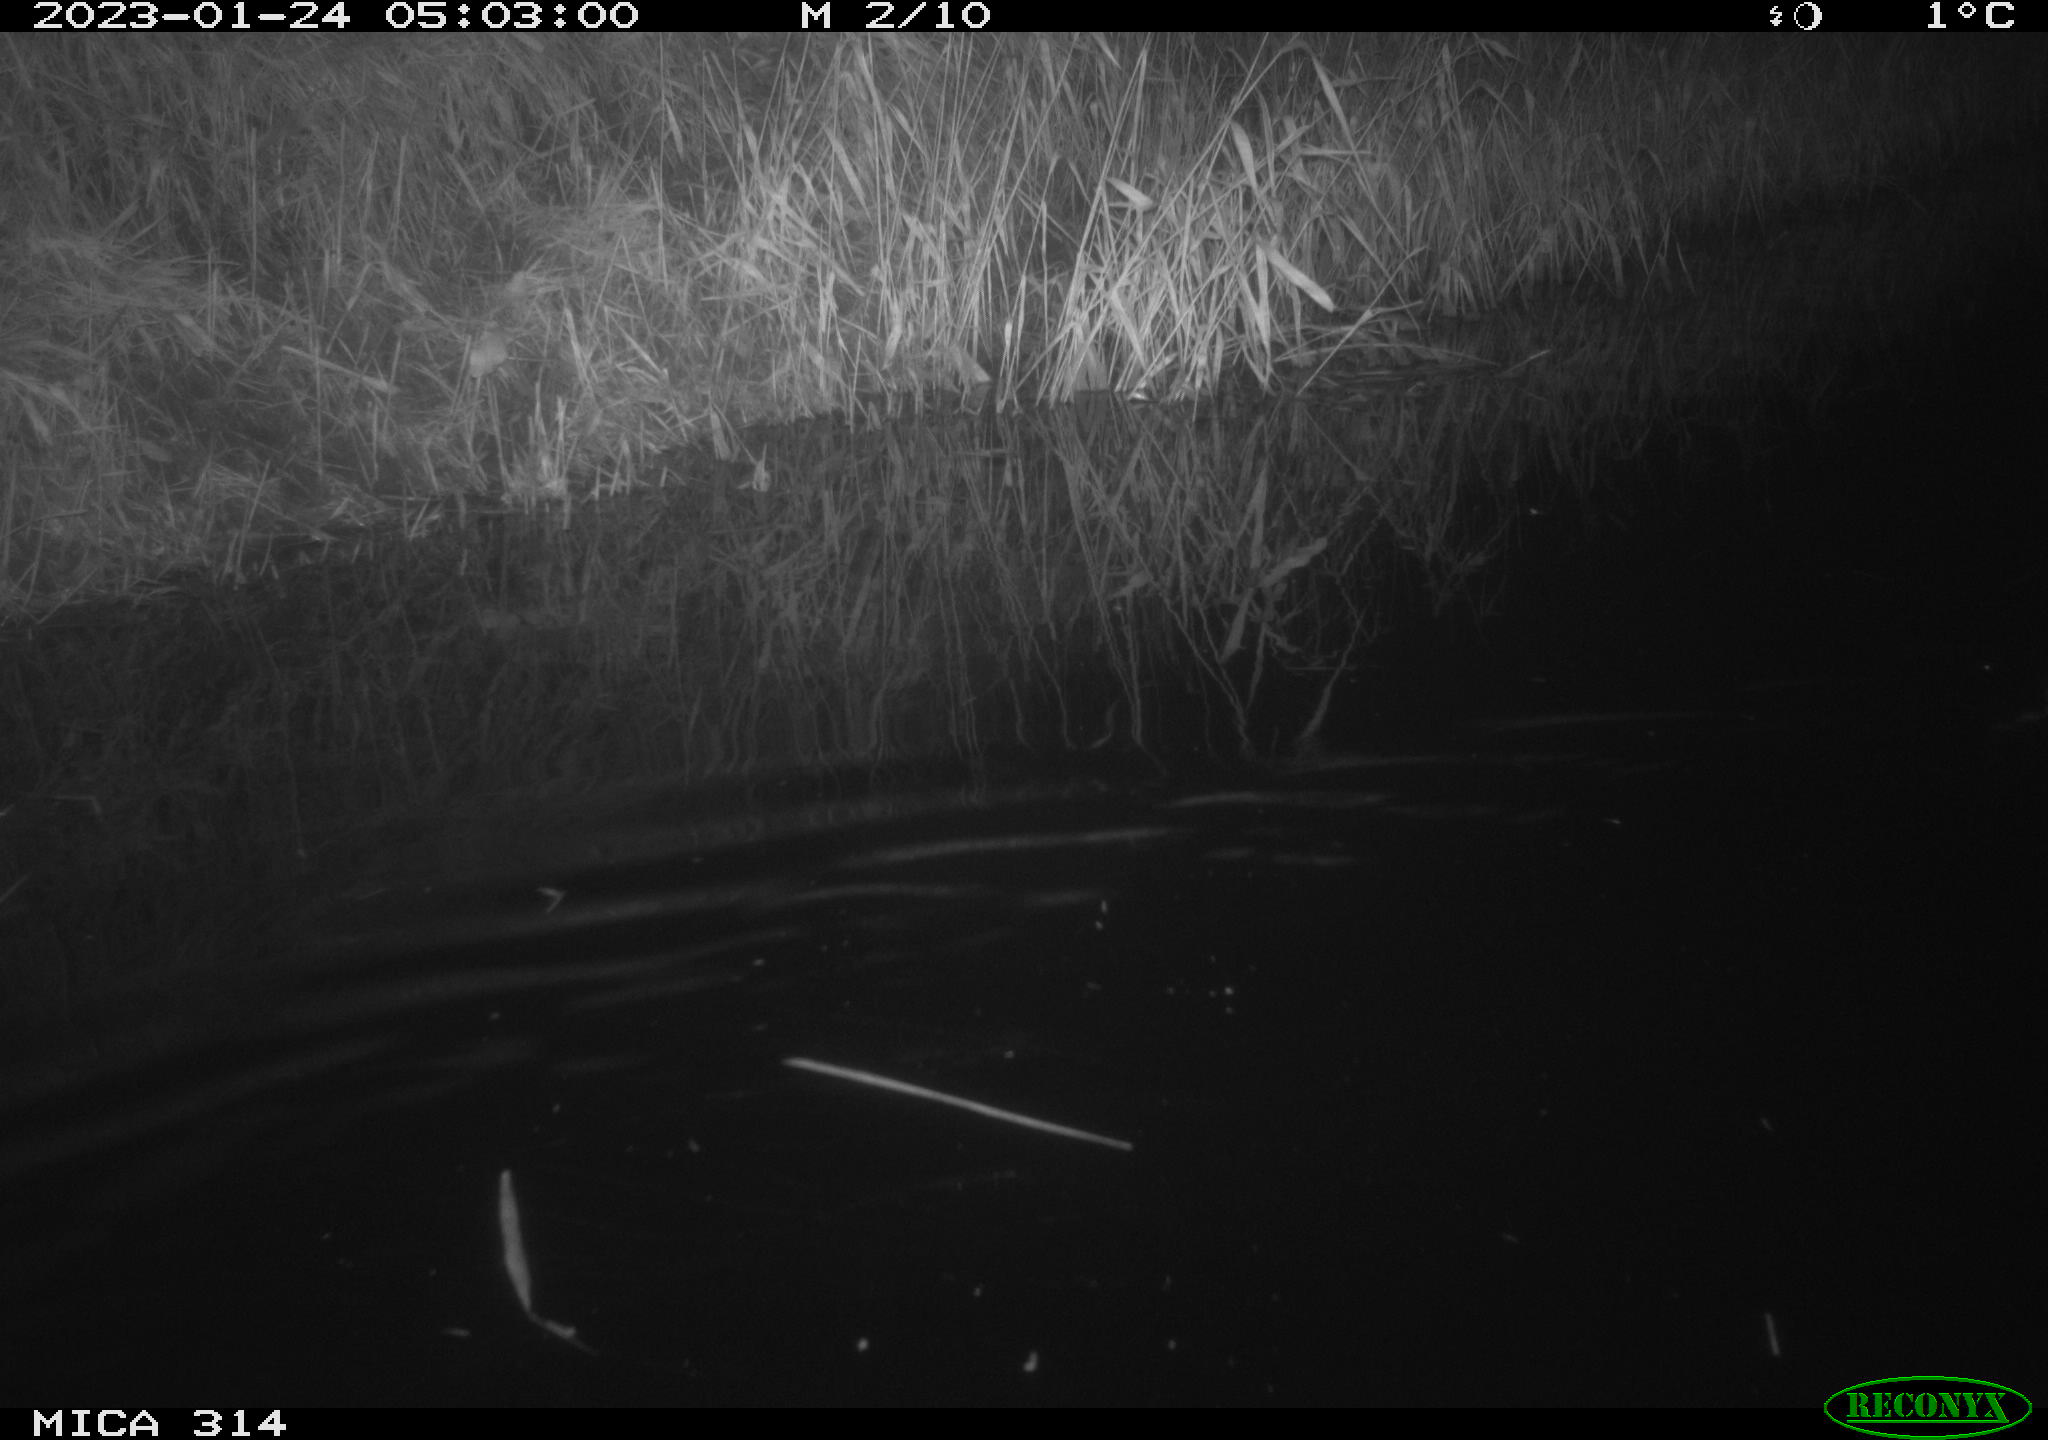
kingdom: Animalia
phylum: Chordata
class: Mammalia
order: Rodentia
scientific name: Rodentia
